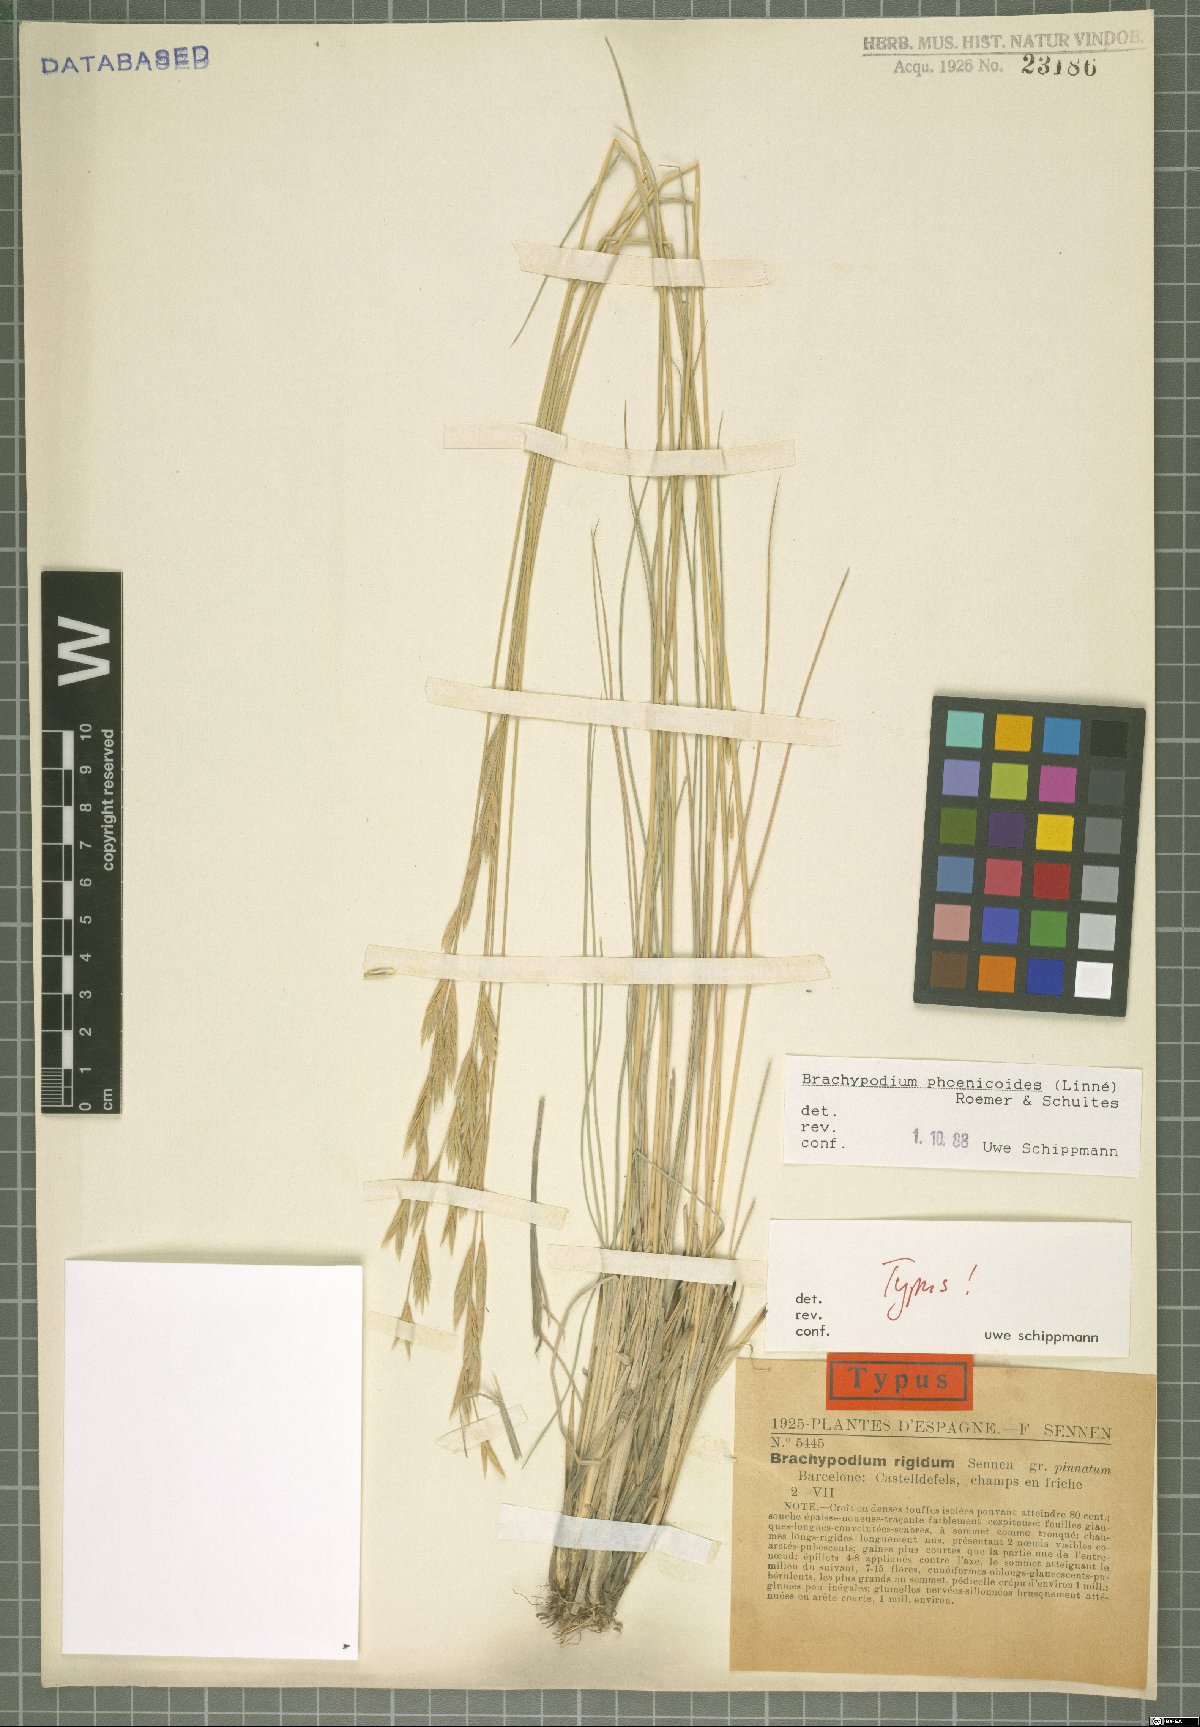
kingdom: Plantae
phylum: Tracheophyta
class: Liliopsida
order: Poales
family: Poaceae
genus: Brachypodium
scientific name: Brachypodium phoenicoides
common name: Thinleaf false brome
